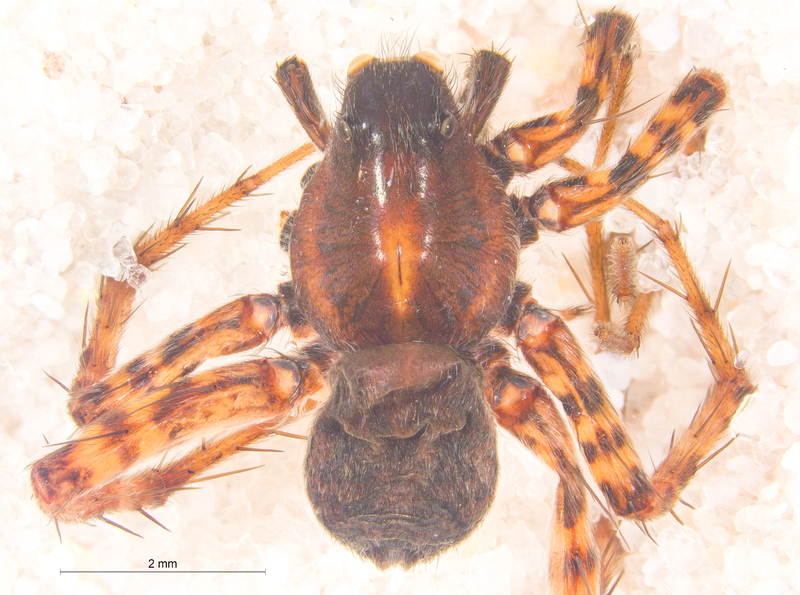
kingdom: Animalia
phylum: Arthropoda
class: Arachnida
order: Araneae
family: Lycosidae
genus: Pardosa
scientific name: Pardosa prativaga
